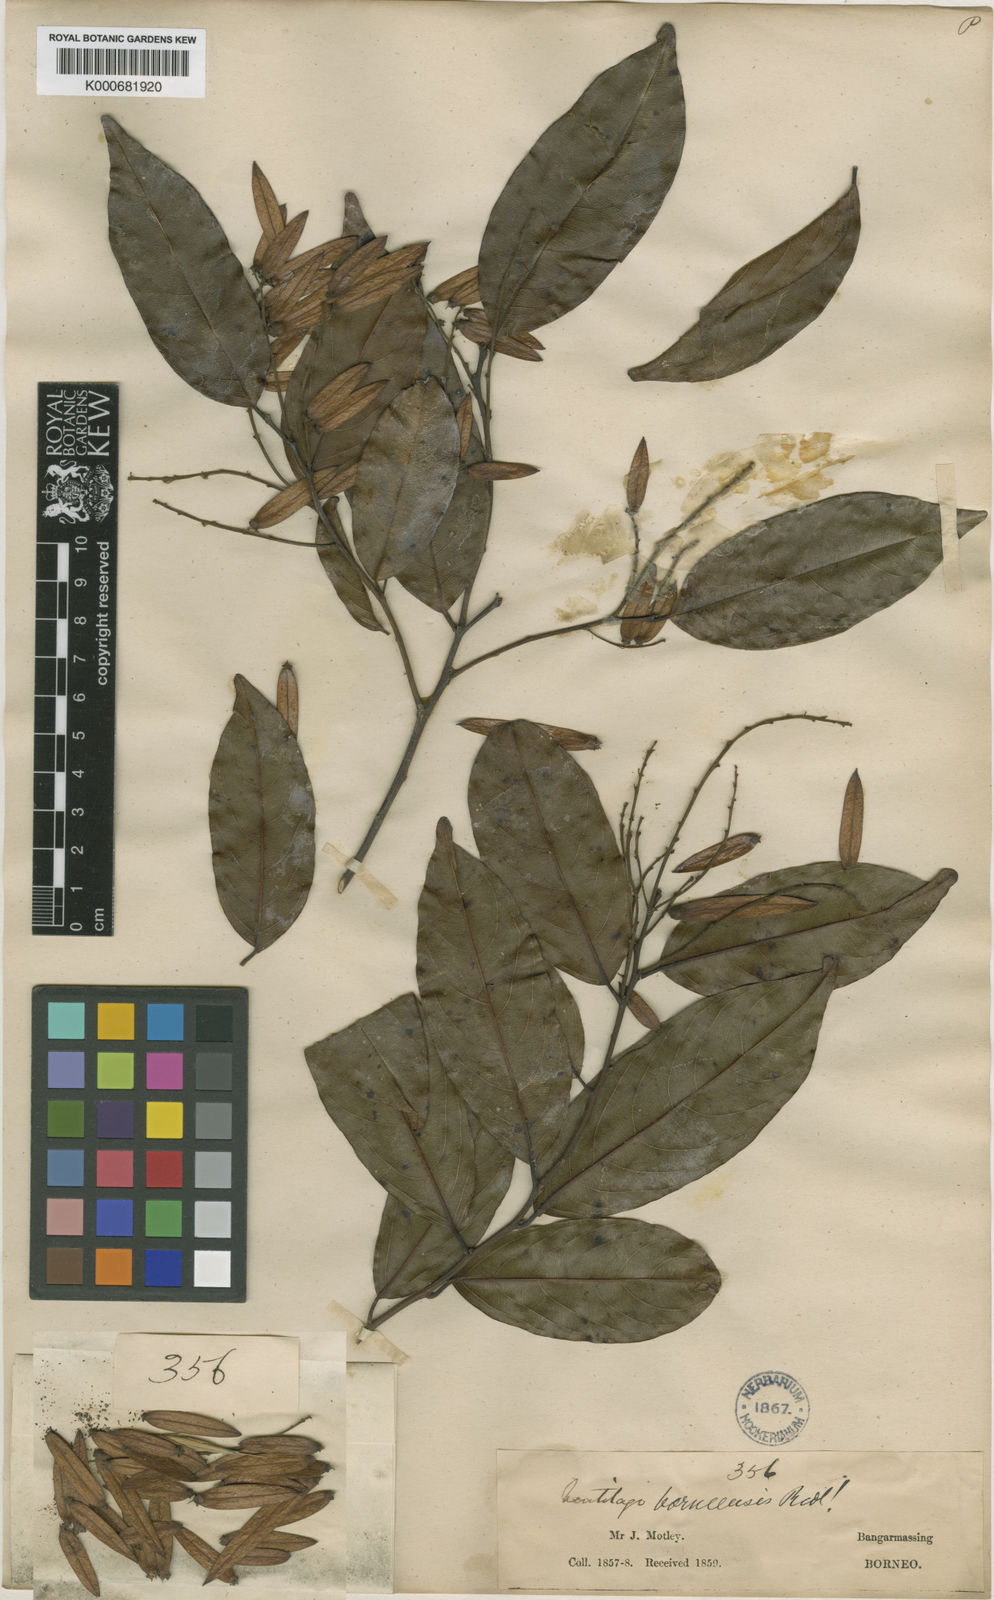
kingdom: Plantae
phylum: Tracheophyta
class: Magnoliopsida
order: Rosales
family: Rhamnaceae
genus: Ventilago
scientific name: Ventilago borneensis
